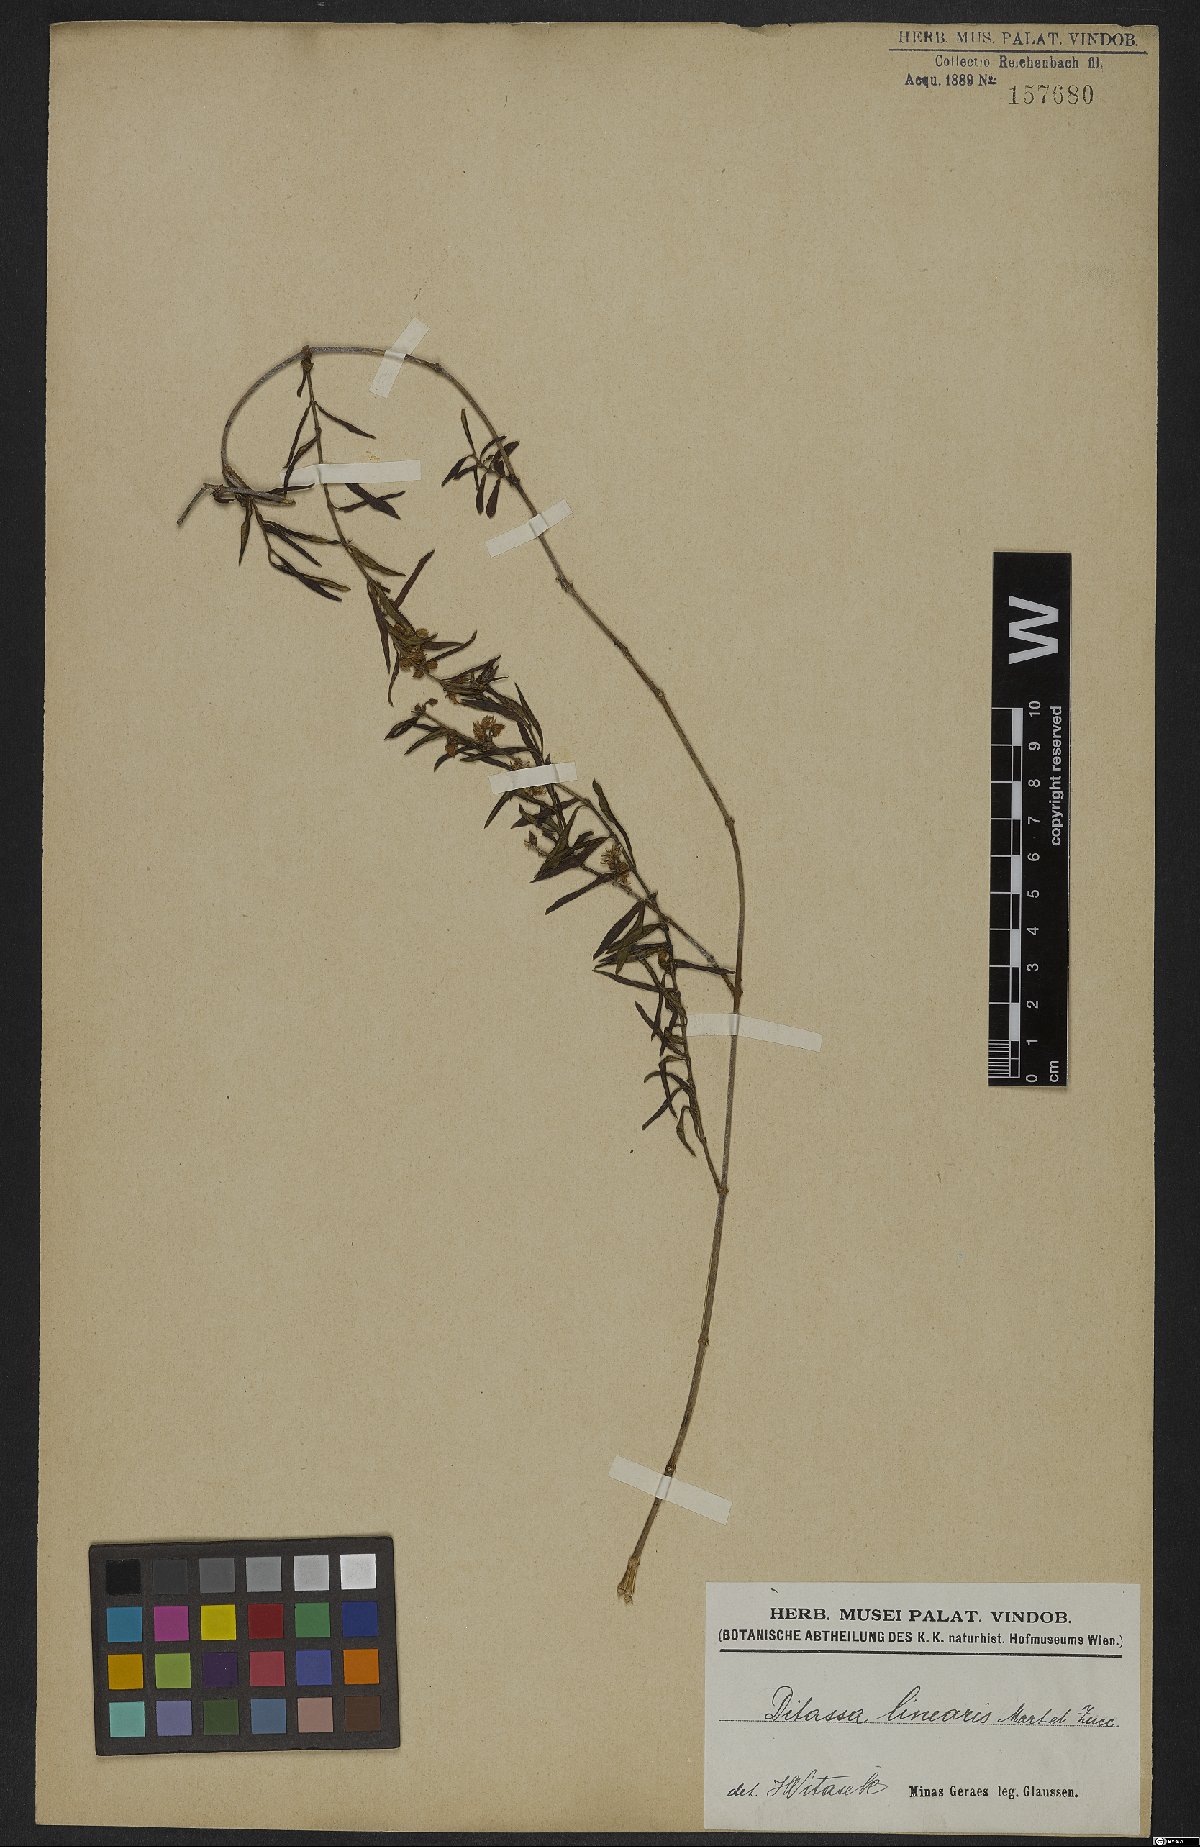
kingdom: Plantae
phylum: Tracheophyta
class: Magnoliopsida
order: Gentianales
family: Apocynaceae
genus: Ditassa
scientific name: Ditassa linearis
